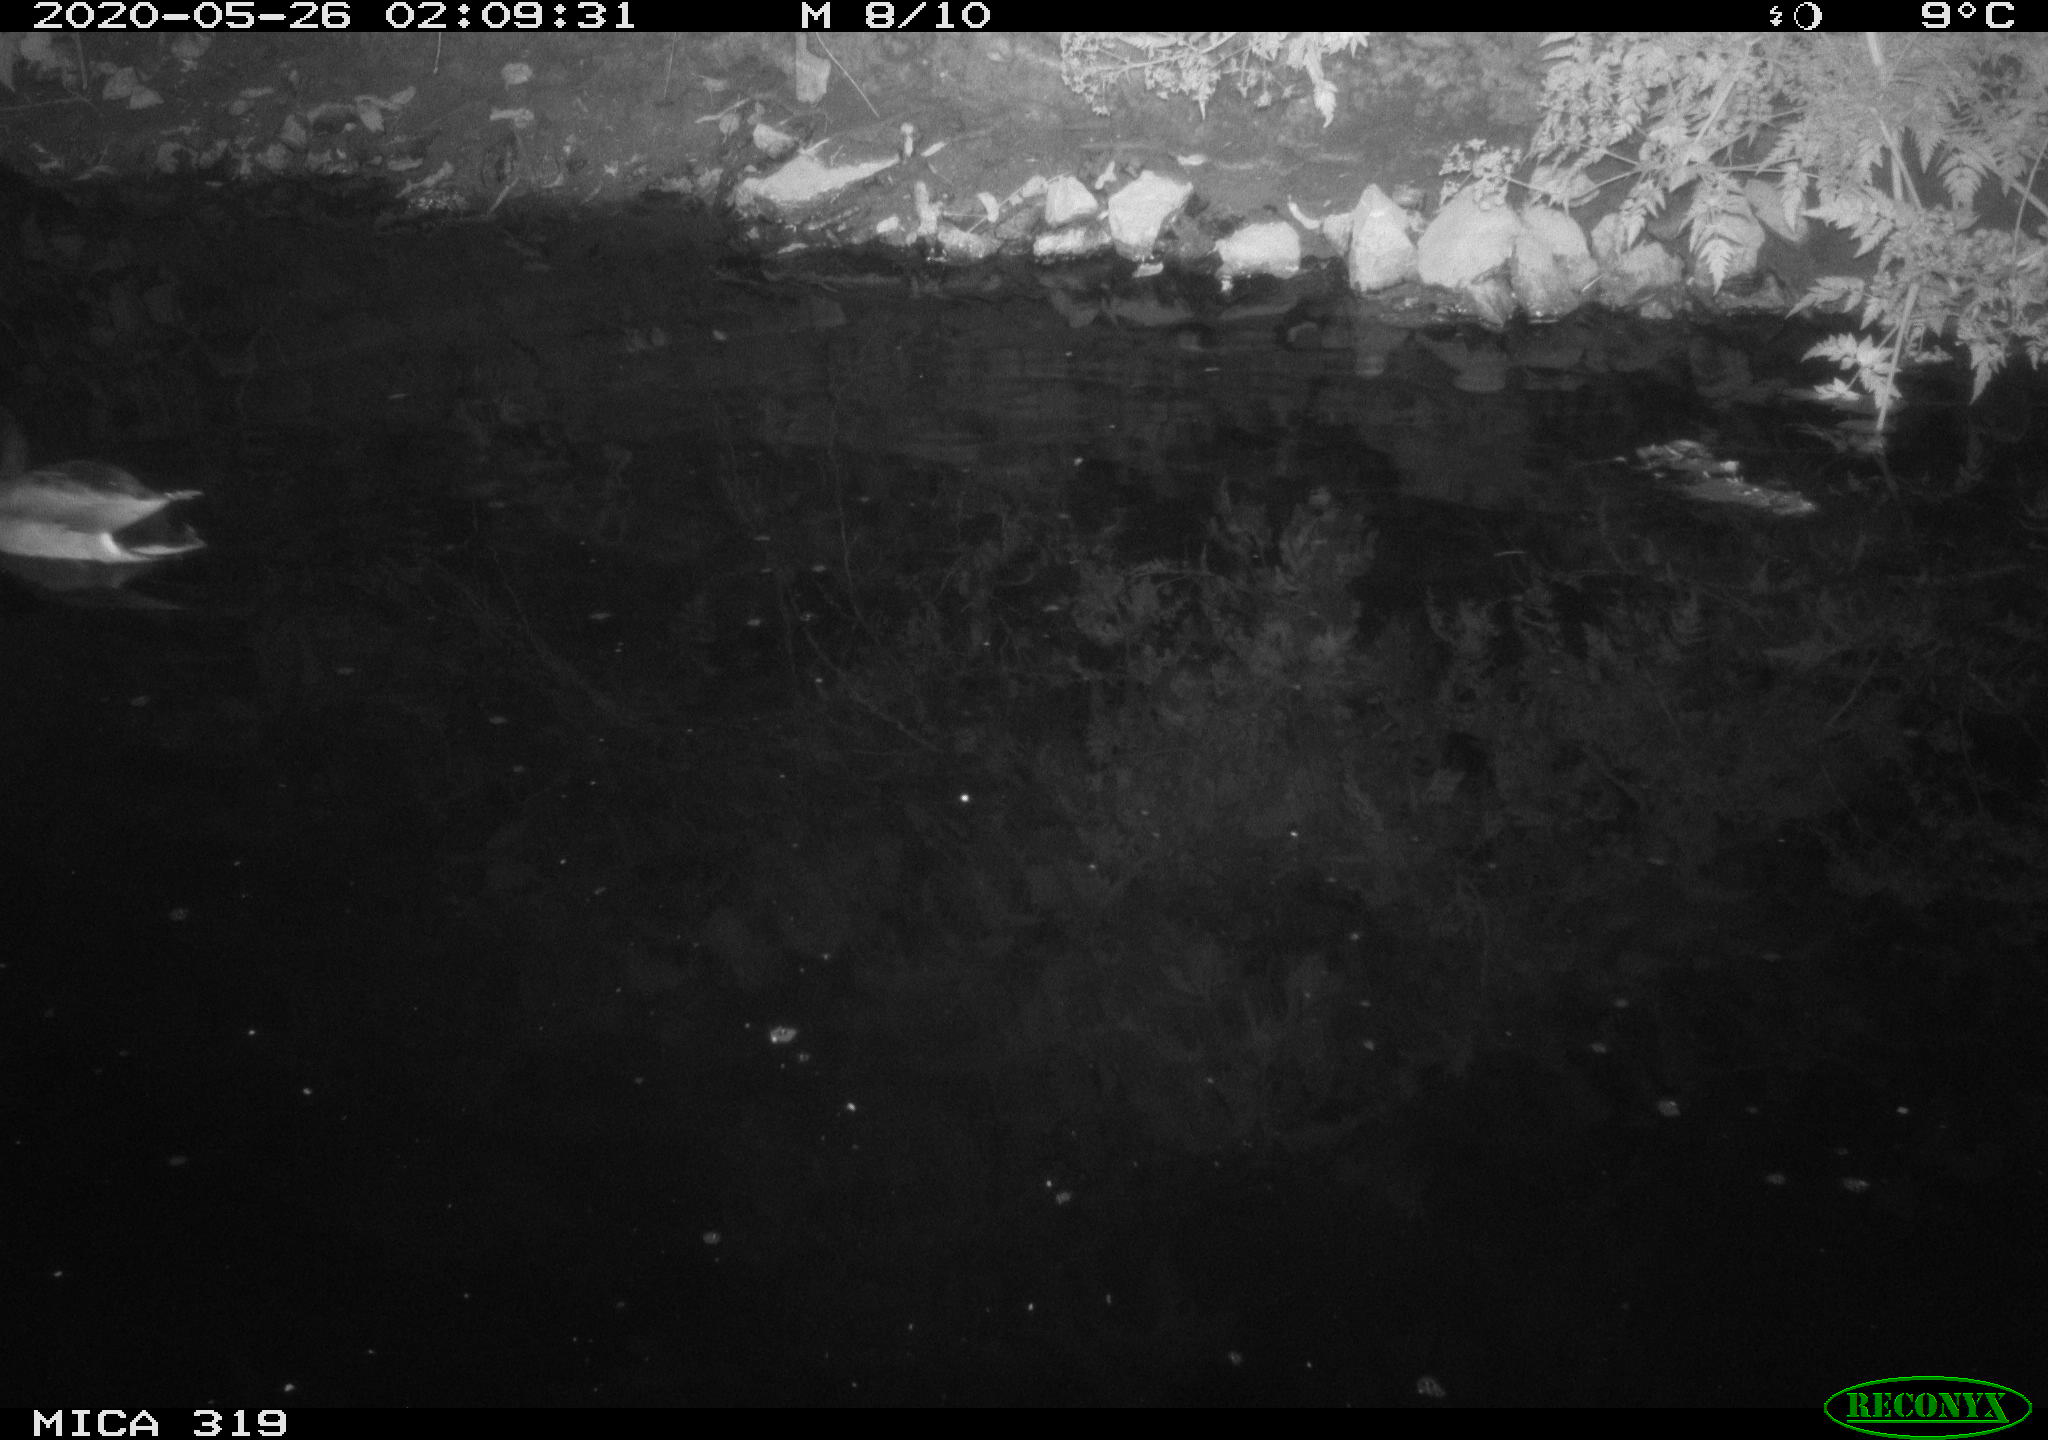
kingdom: Animalia
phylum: Chordata
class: Aves
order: Anseriformes
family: Anatidae
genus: Anas
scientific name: Anas platyrhynchos
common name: Mallard
